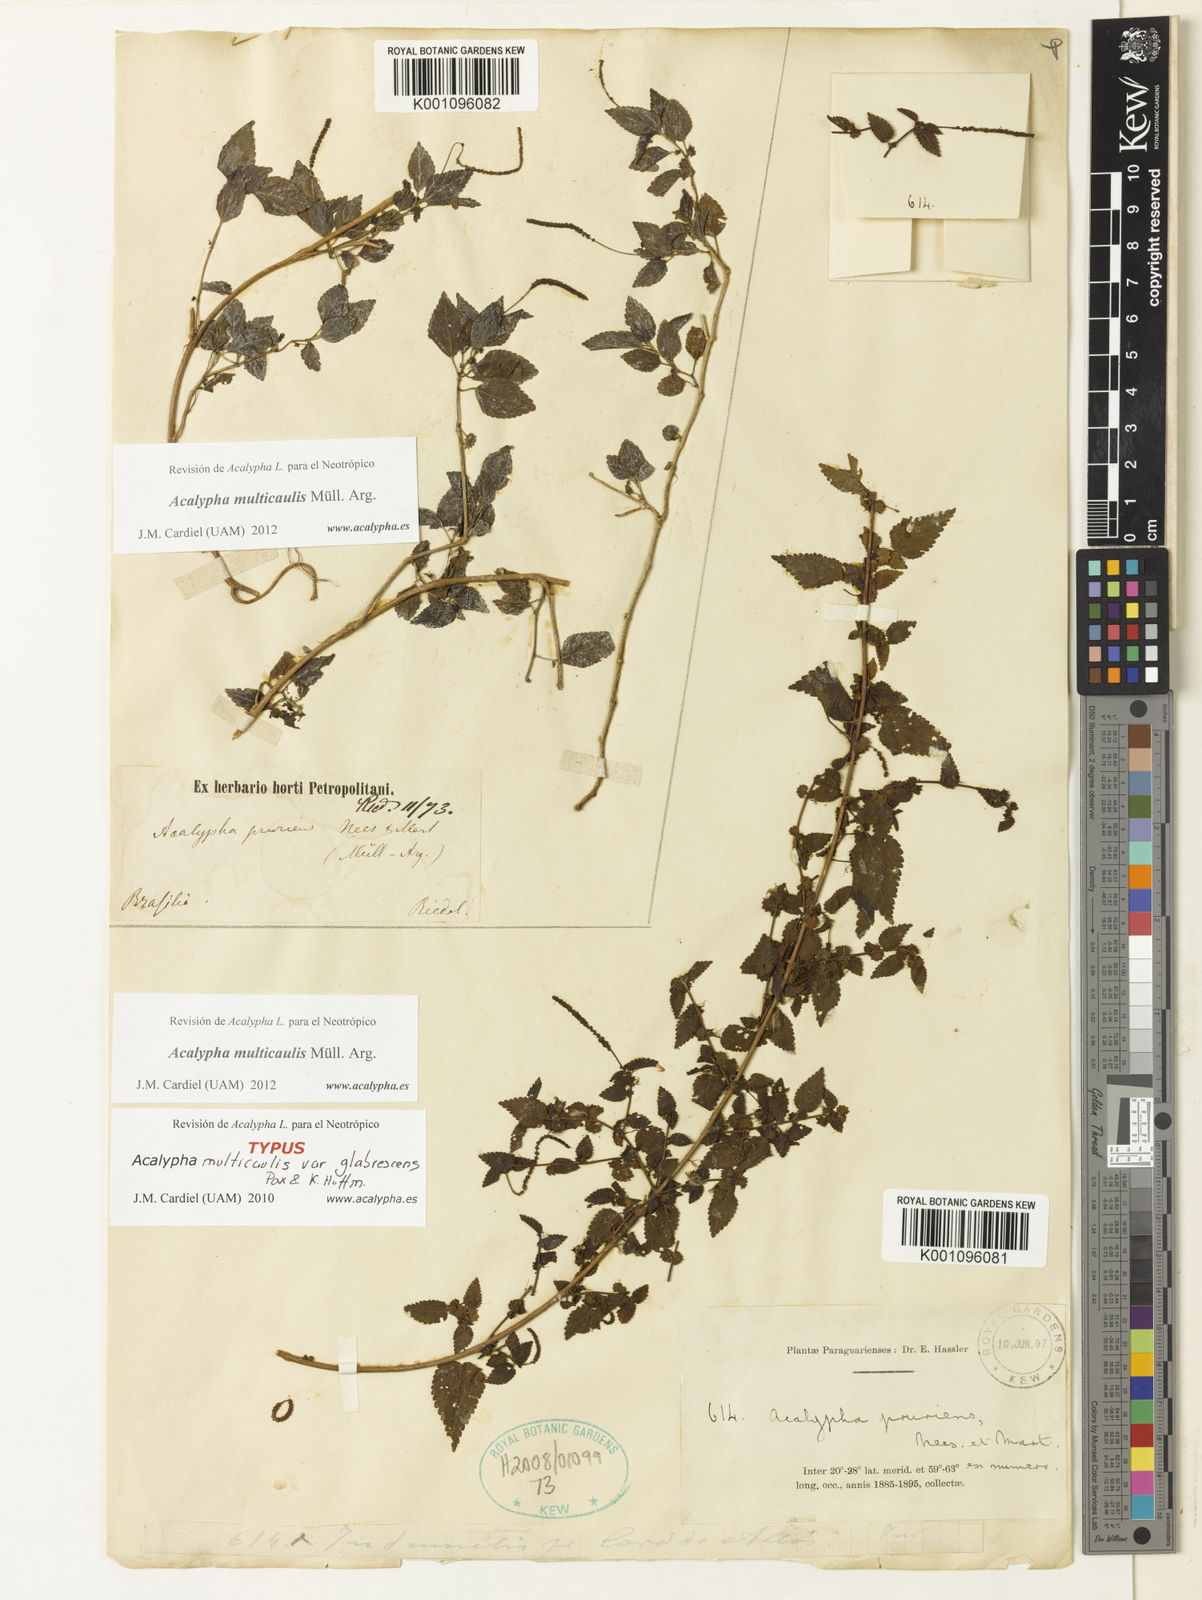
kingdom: Plantae
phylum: Tracheophyta
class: Magnoliopsida
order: Malpighiales
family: Euphorbiaceae
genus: Acalypha
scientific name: Acalypha
